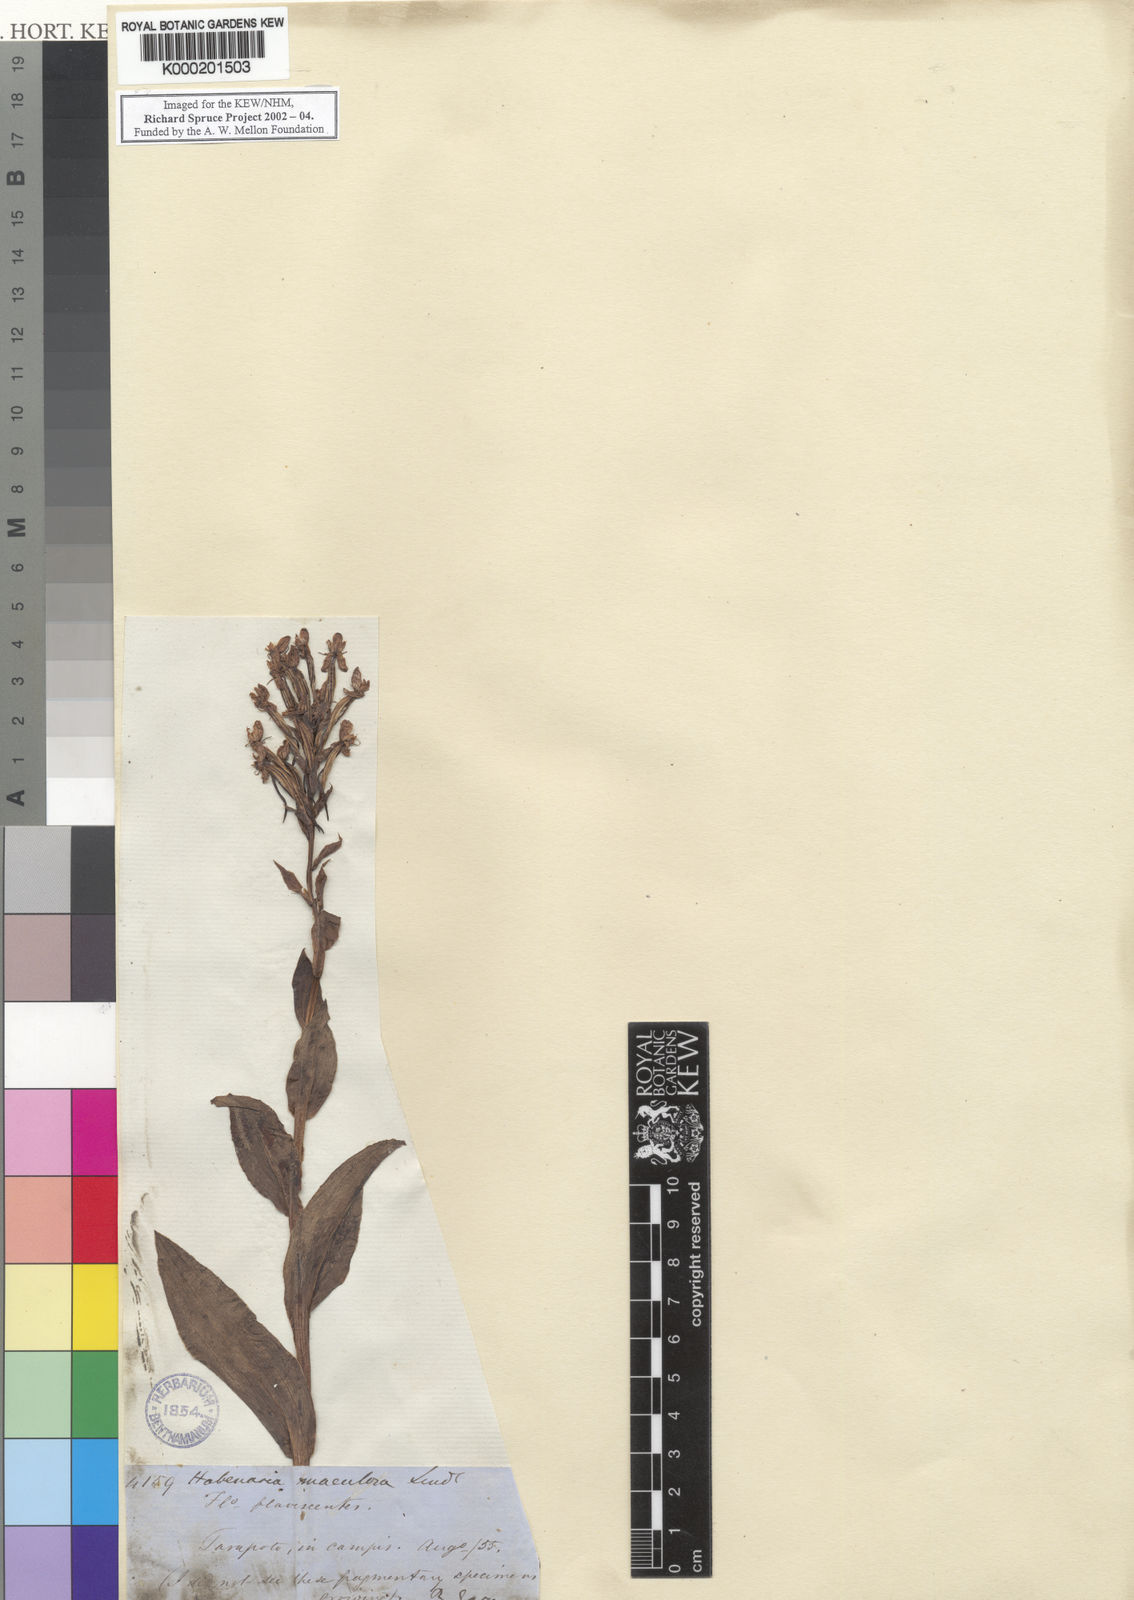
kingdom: Plantae
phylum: Tracheophyta
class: Liliopsida
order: Asparagales
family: Orchidaceae
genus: Habenaria
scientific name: Habenaria maculosa
